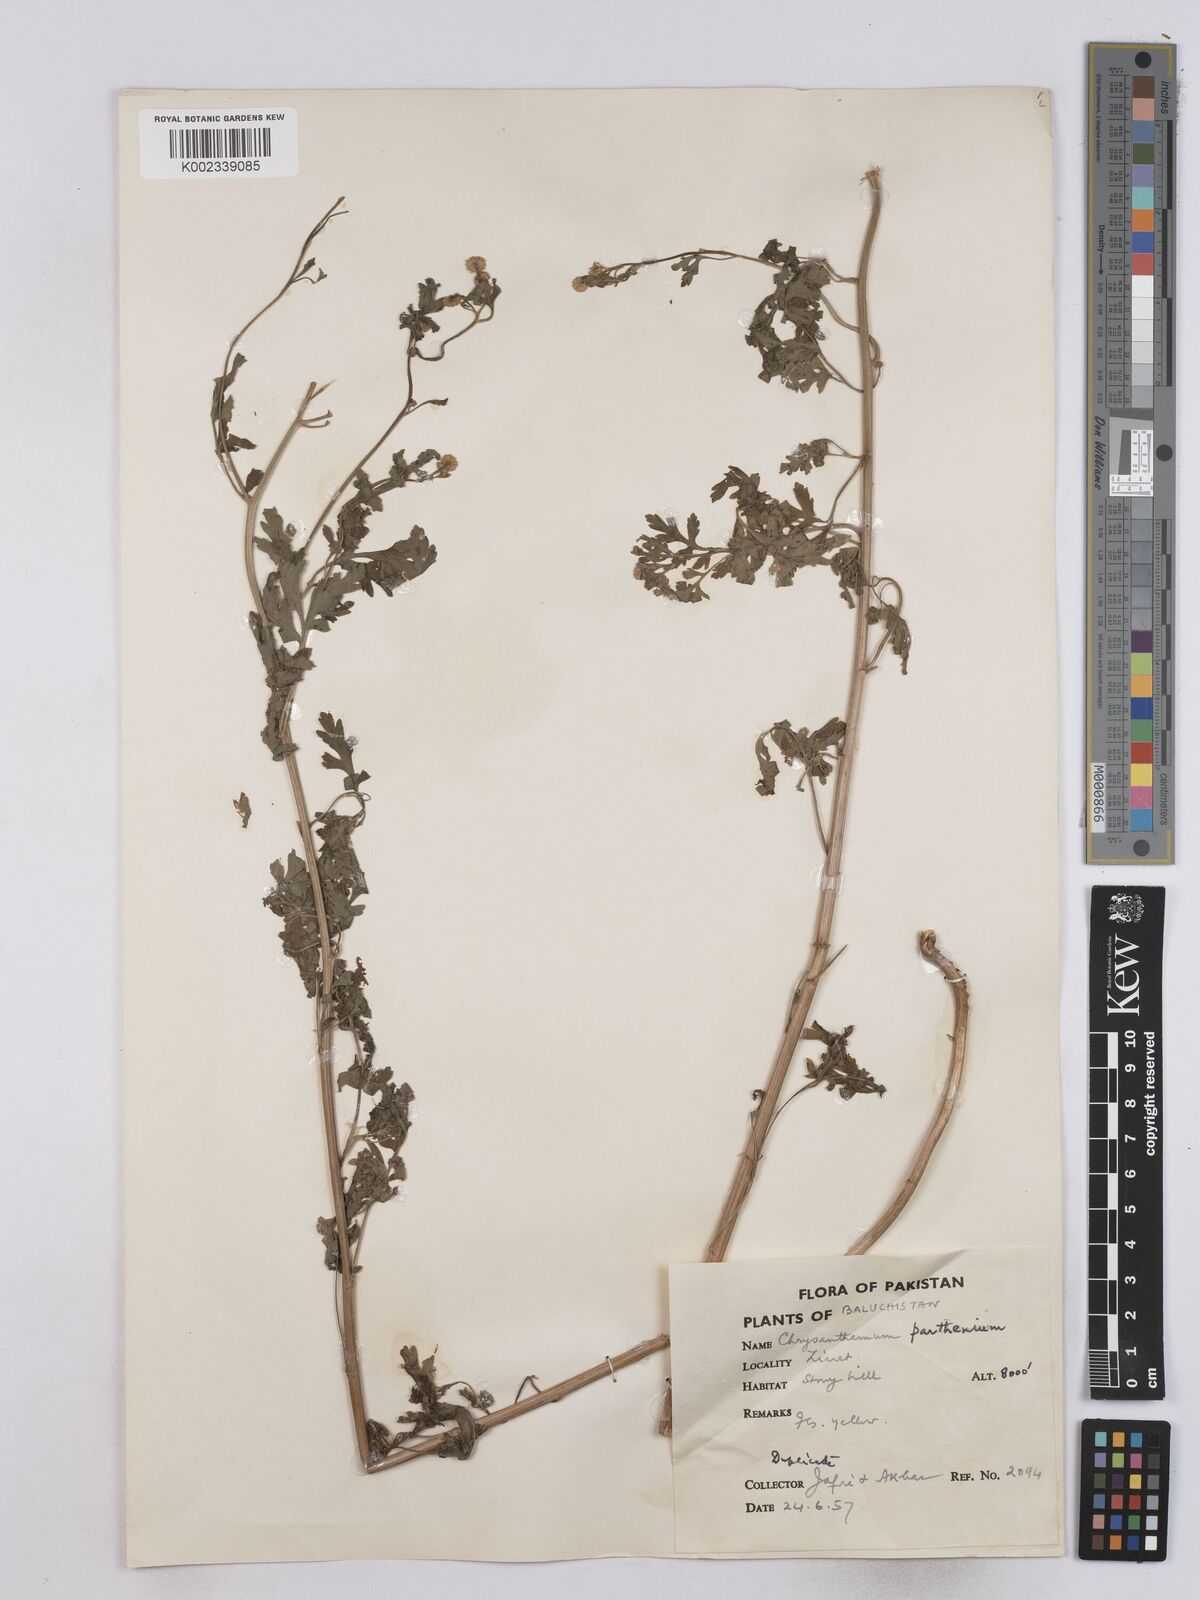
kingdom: Plantae
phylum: Tracheophyta
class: Magnoliopsida
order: Asterales
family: Asteraceae
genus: Tanacetum
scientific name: Tanacetum parthenium
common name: Feverfew
